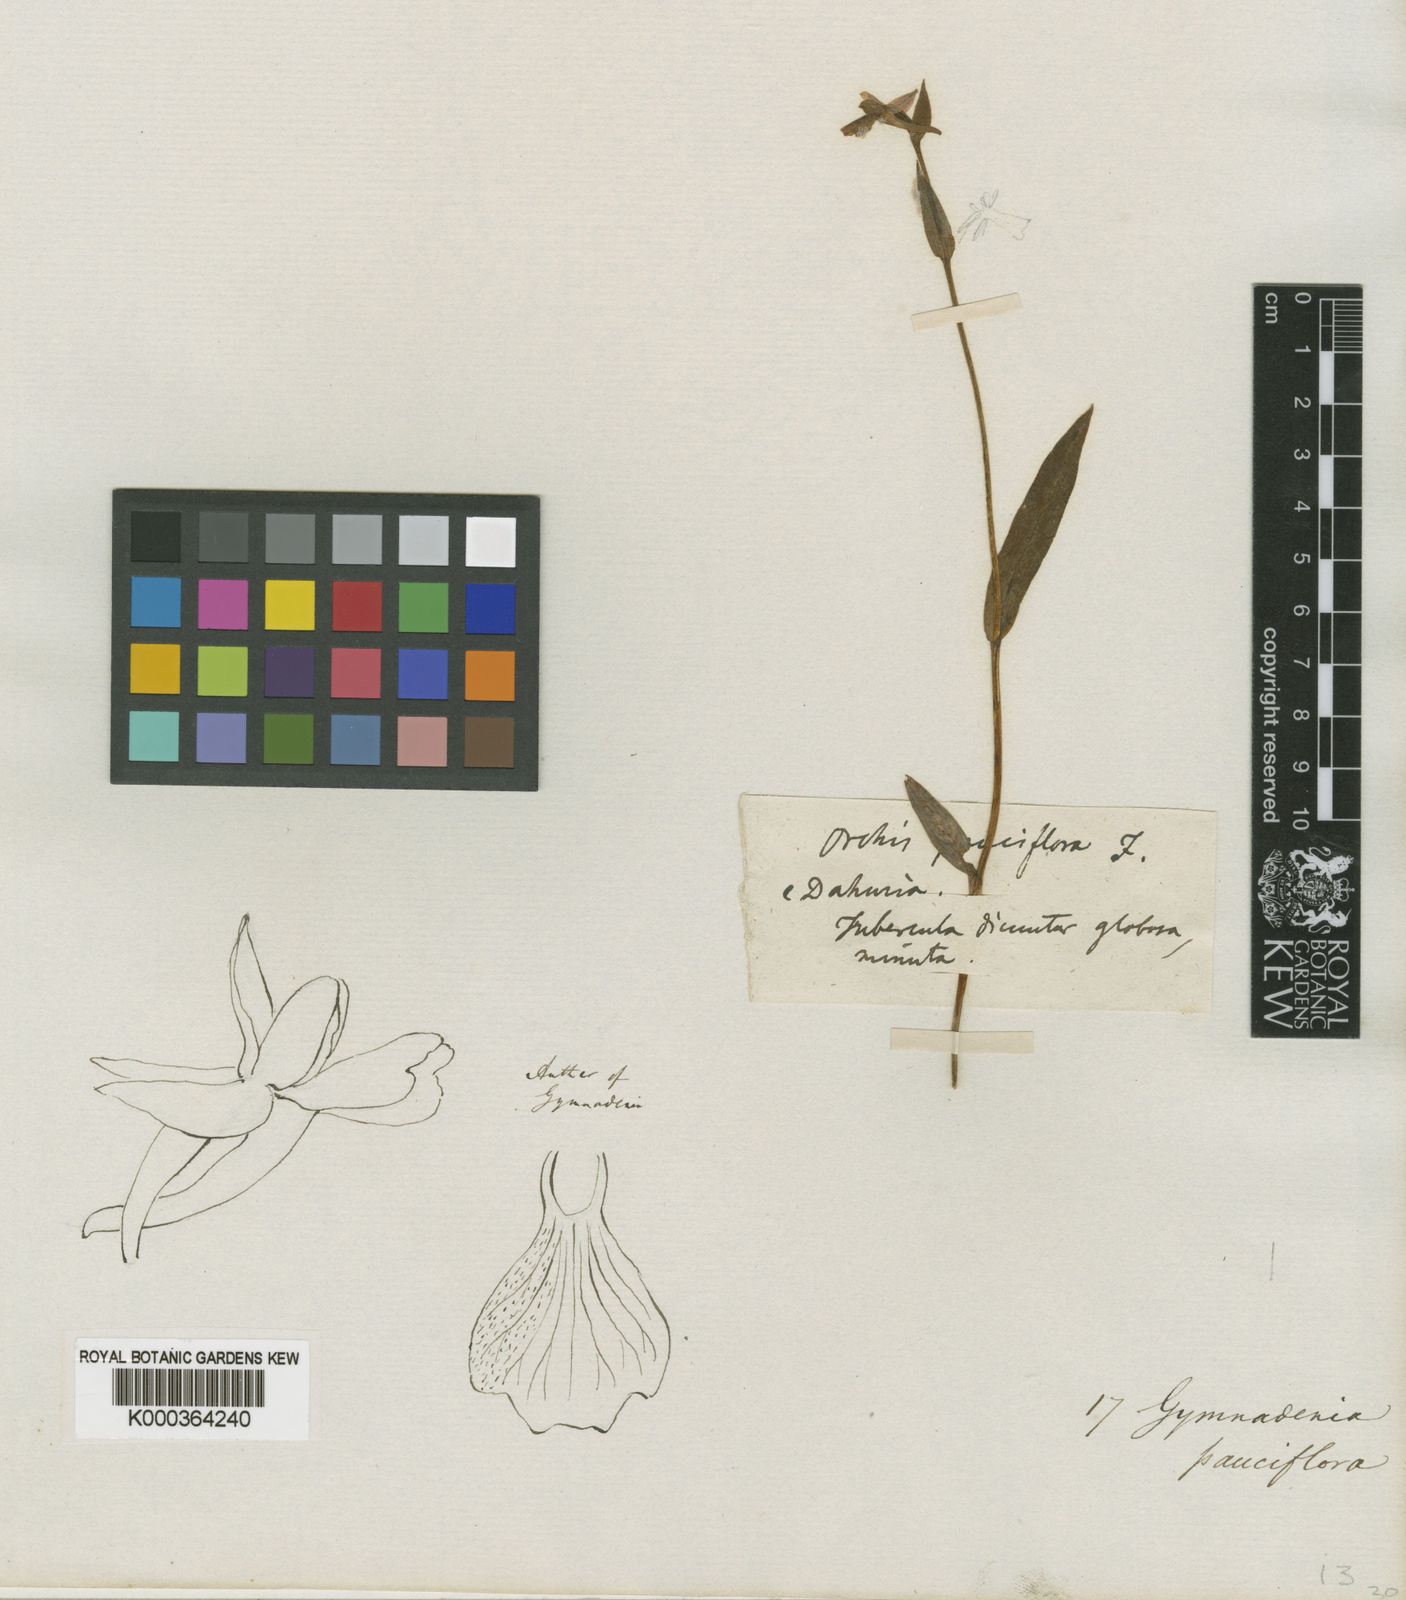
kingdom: Plantae
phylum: Tracheophyta
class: Liliopsida
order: Asparagales
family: Orchidaceae
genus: Hemipilia
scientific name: Hemipilia
